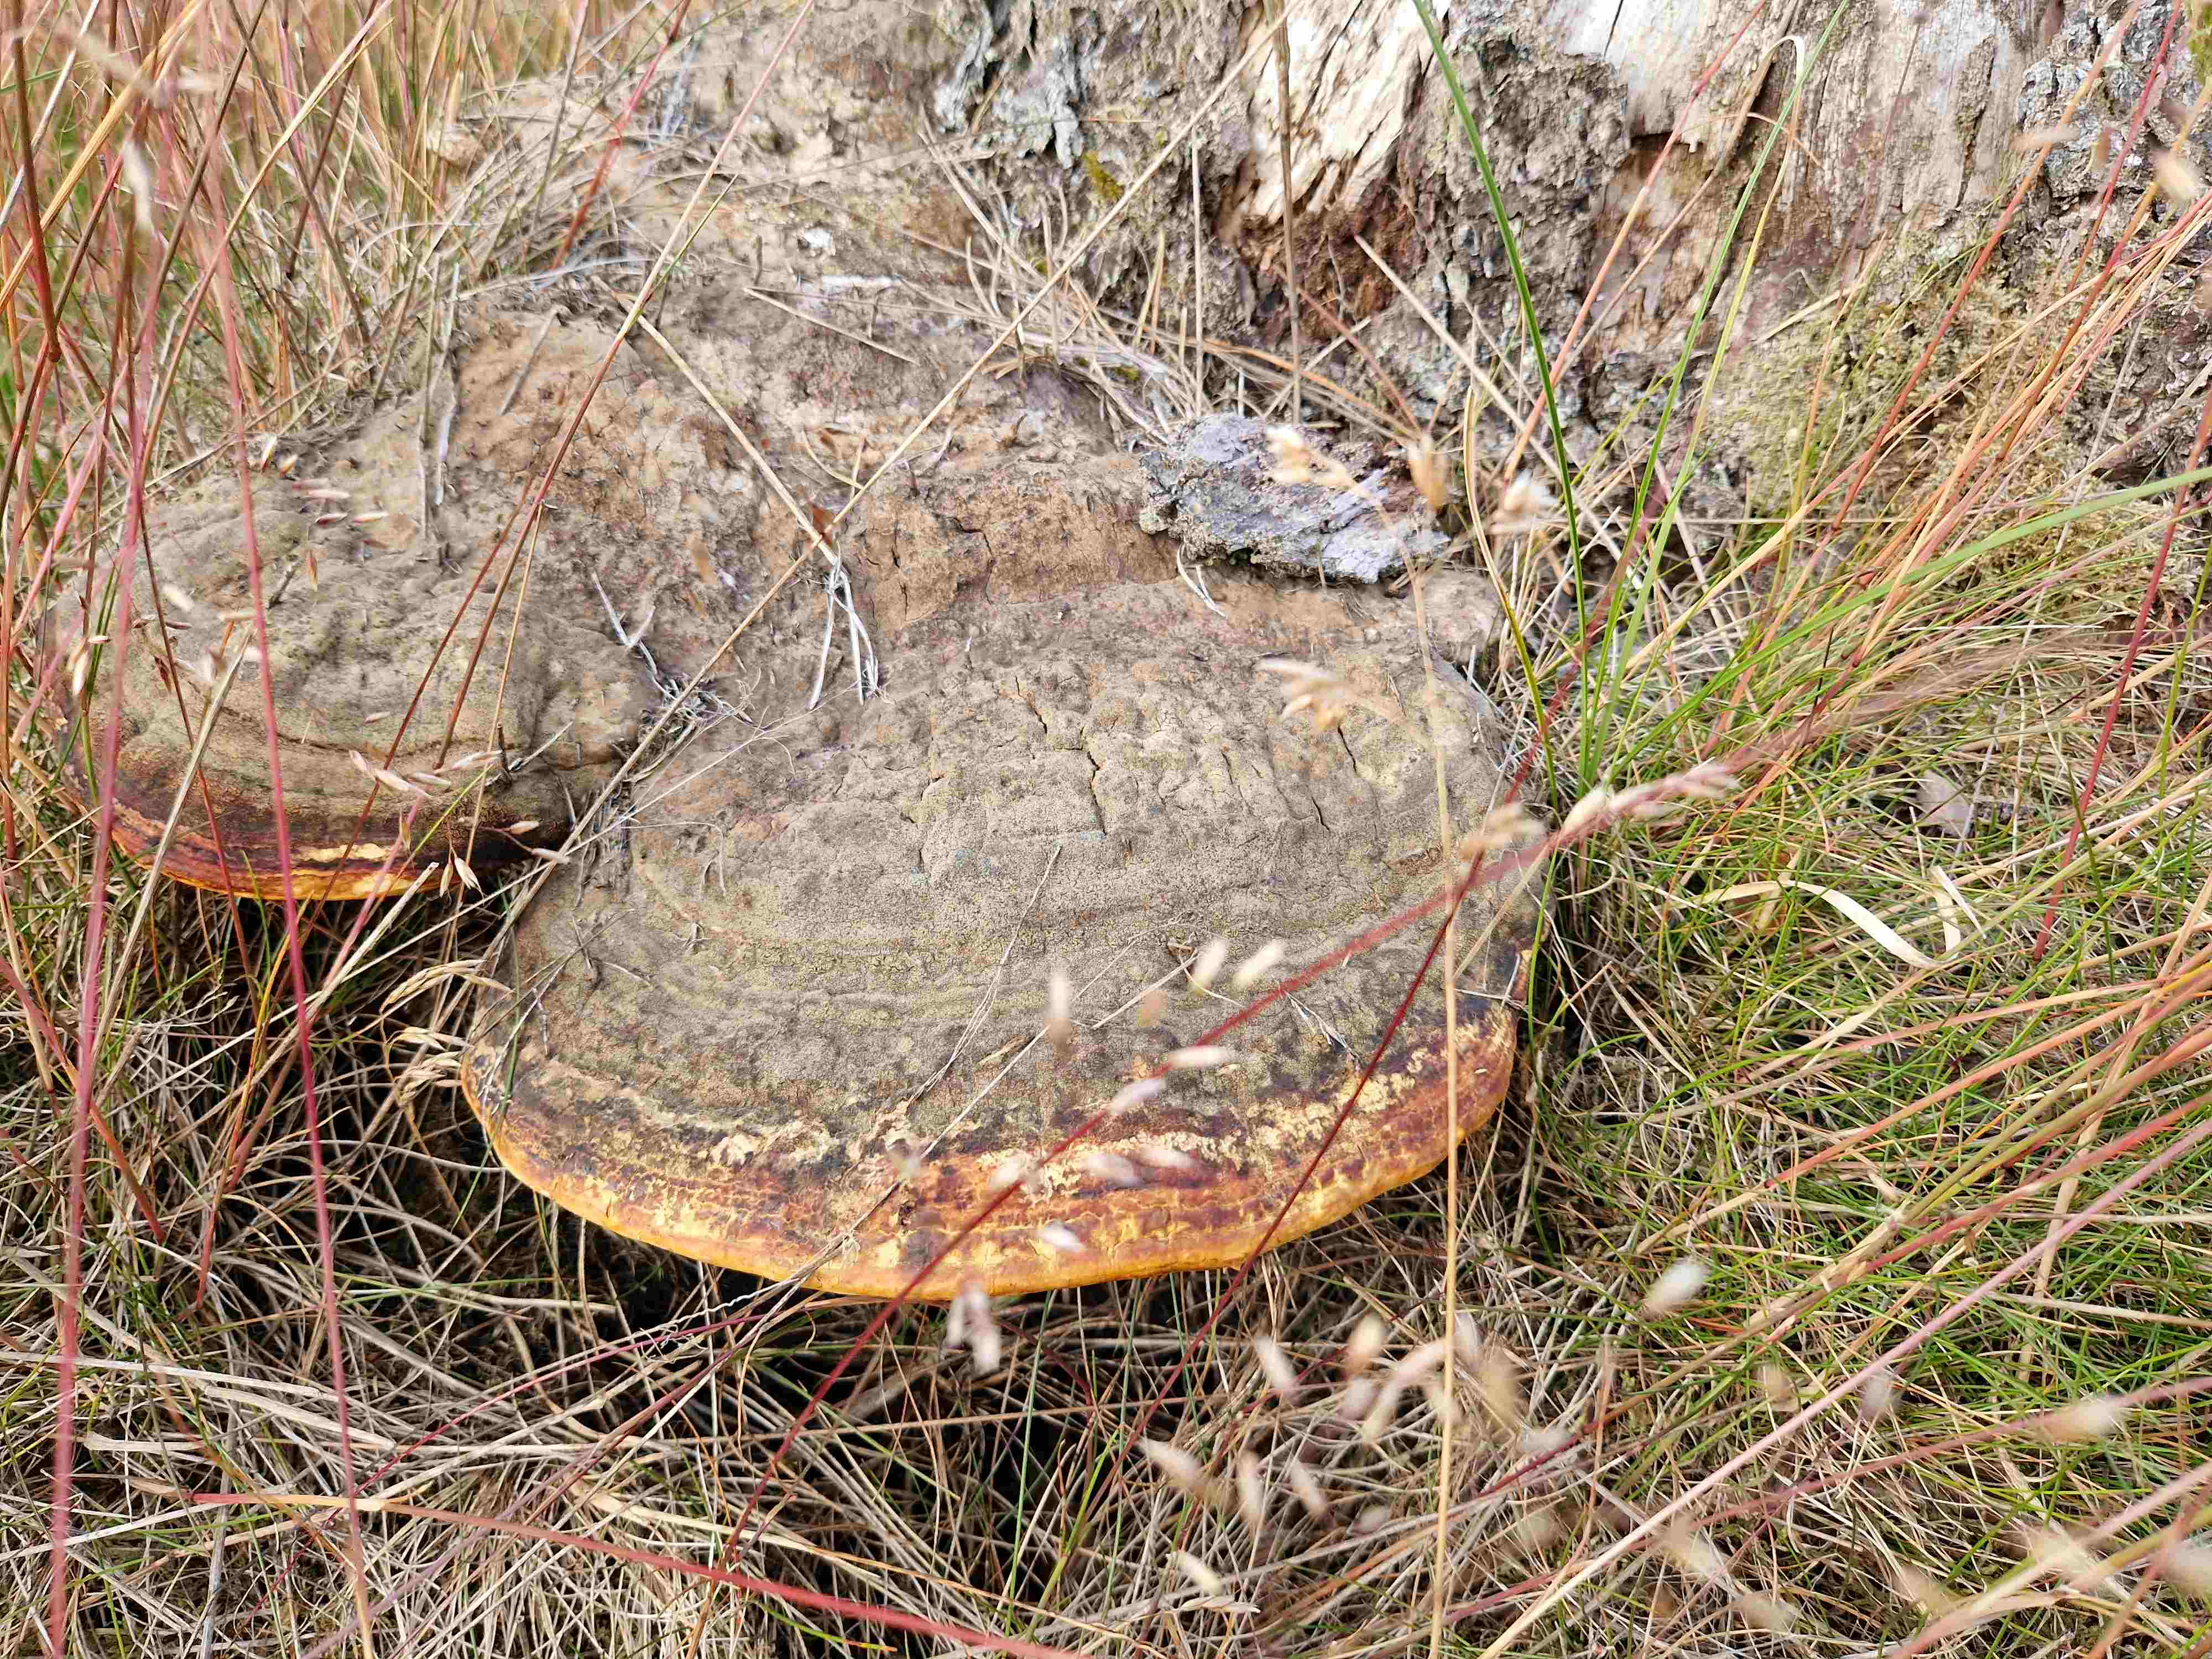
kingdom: Fungi
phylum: Basidiomycota
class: Agaricomycetes
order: Polyporales
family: Fomitopsidaceae
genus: Fomitopsis
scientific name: Fomitopsis pinicola
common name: randbæltet hovporesvamp
